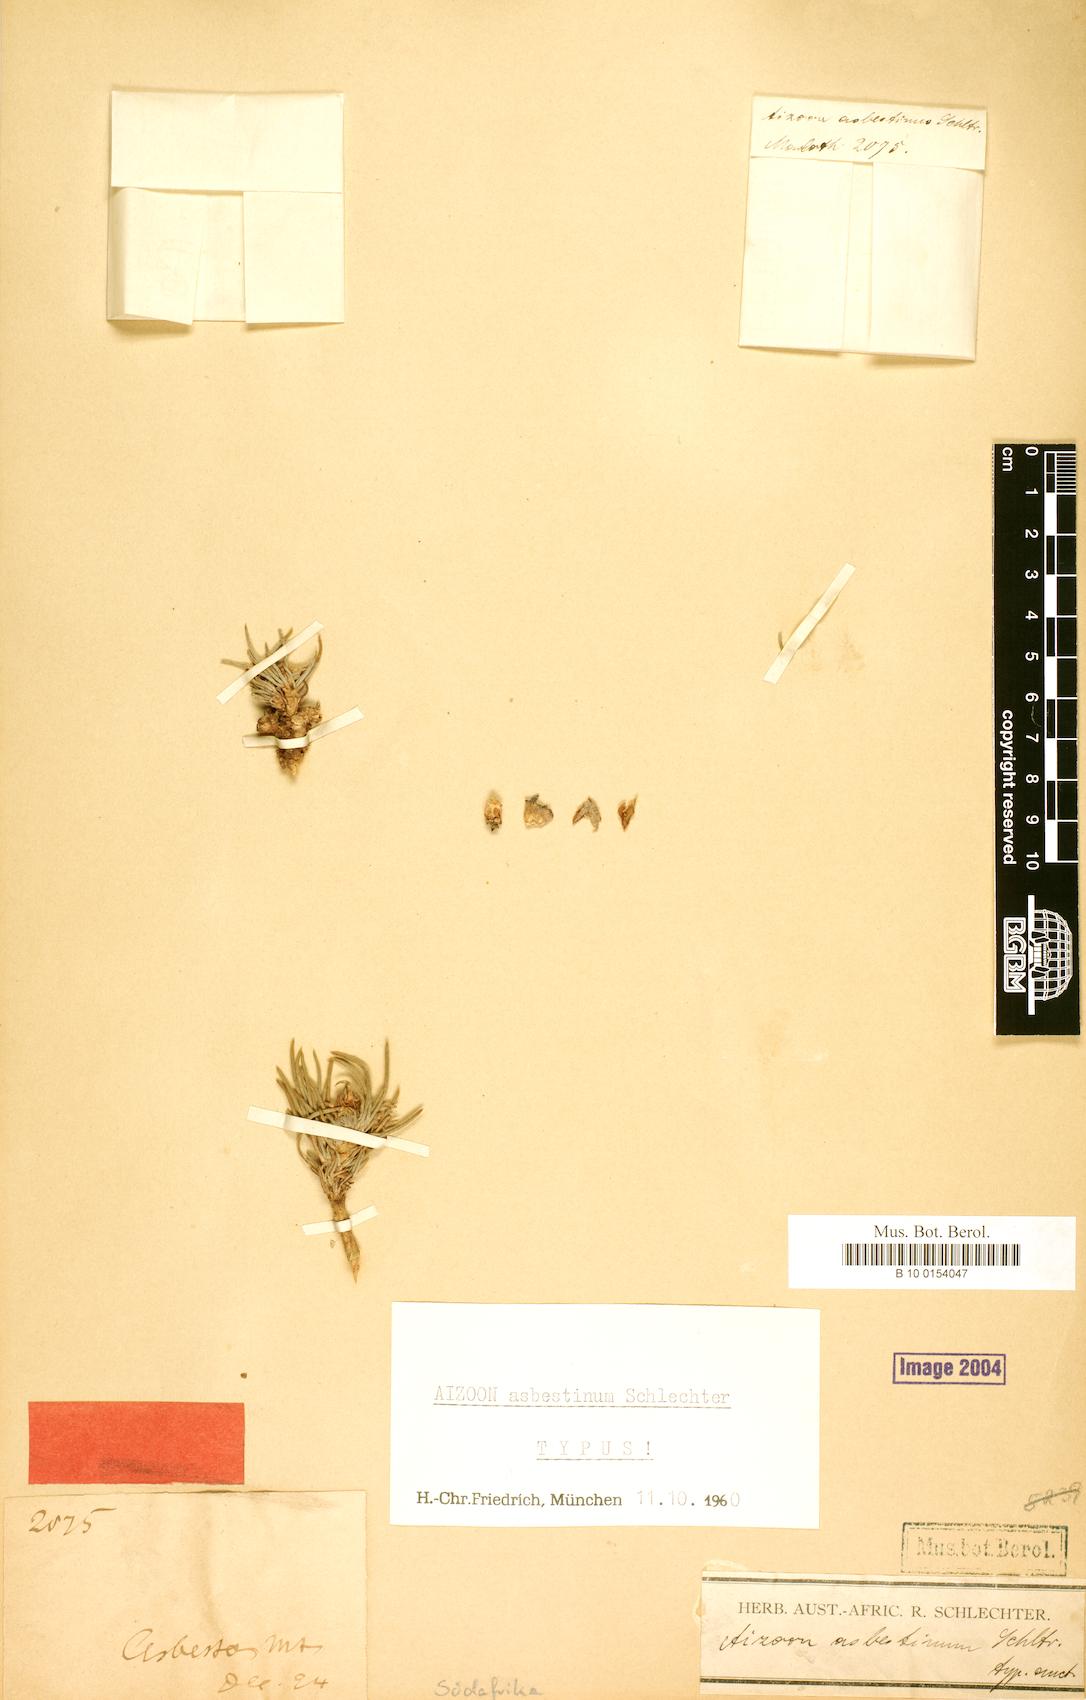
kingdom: Plantae
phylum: Tracheophyta
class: Magnoliopsida
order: Caryophyllales
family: Aizoaceae
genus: Aizoon
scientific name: Aizoon asbestinum
